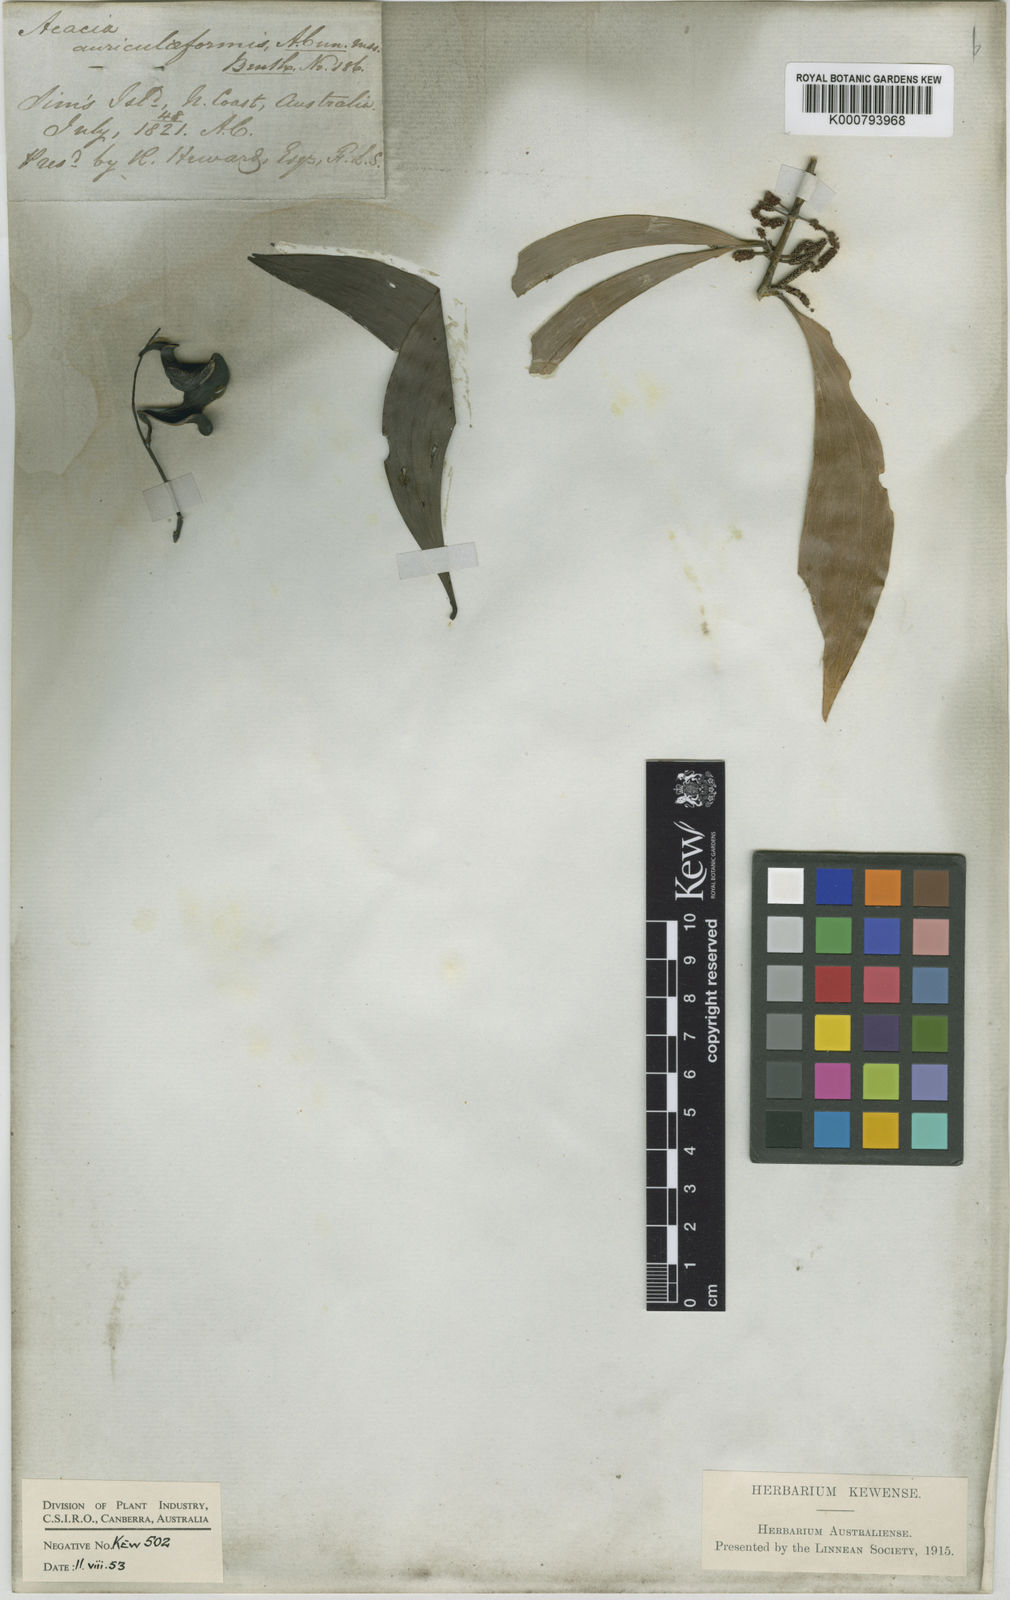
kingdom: Plantae
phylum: Tracheophyta
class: Magnoliopsida
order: Fabales
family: Fabaceae
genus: Acacia
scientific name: Acacia auriculiformis
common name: Earleaf acacia
